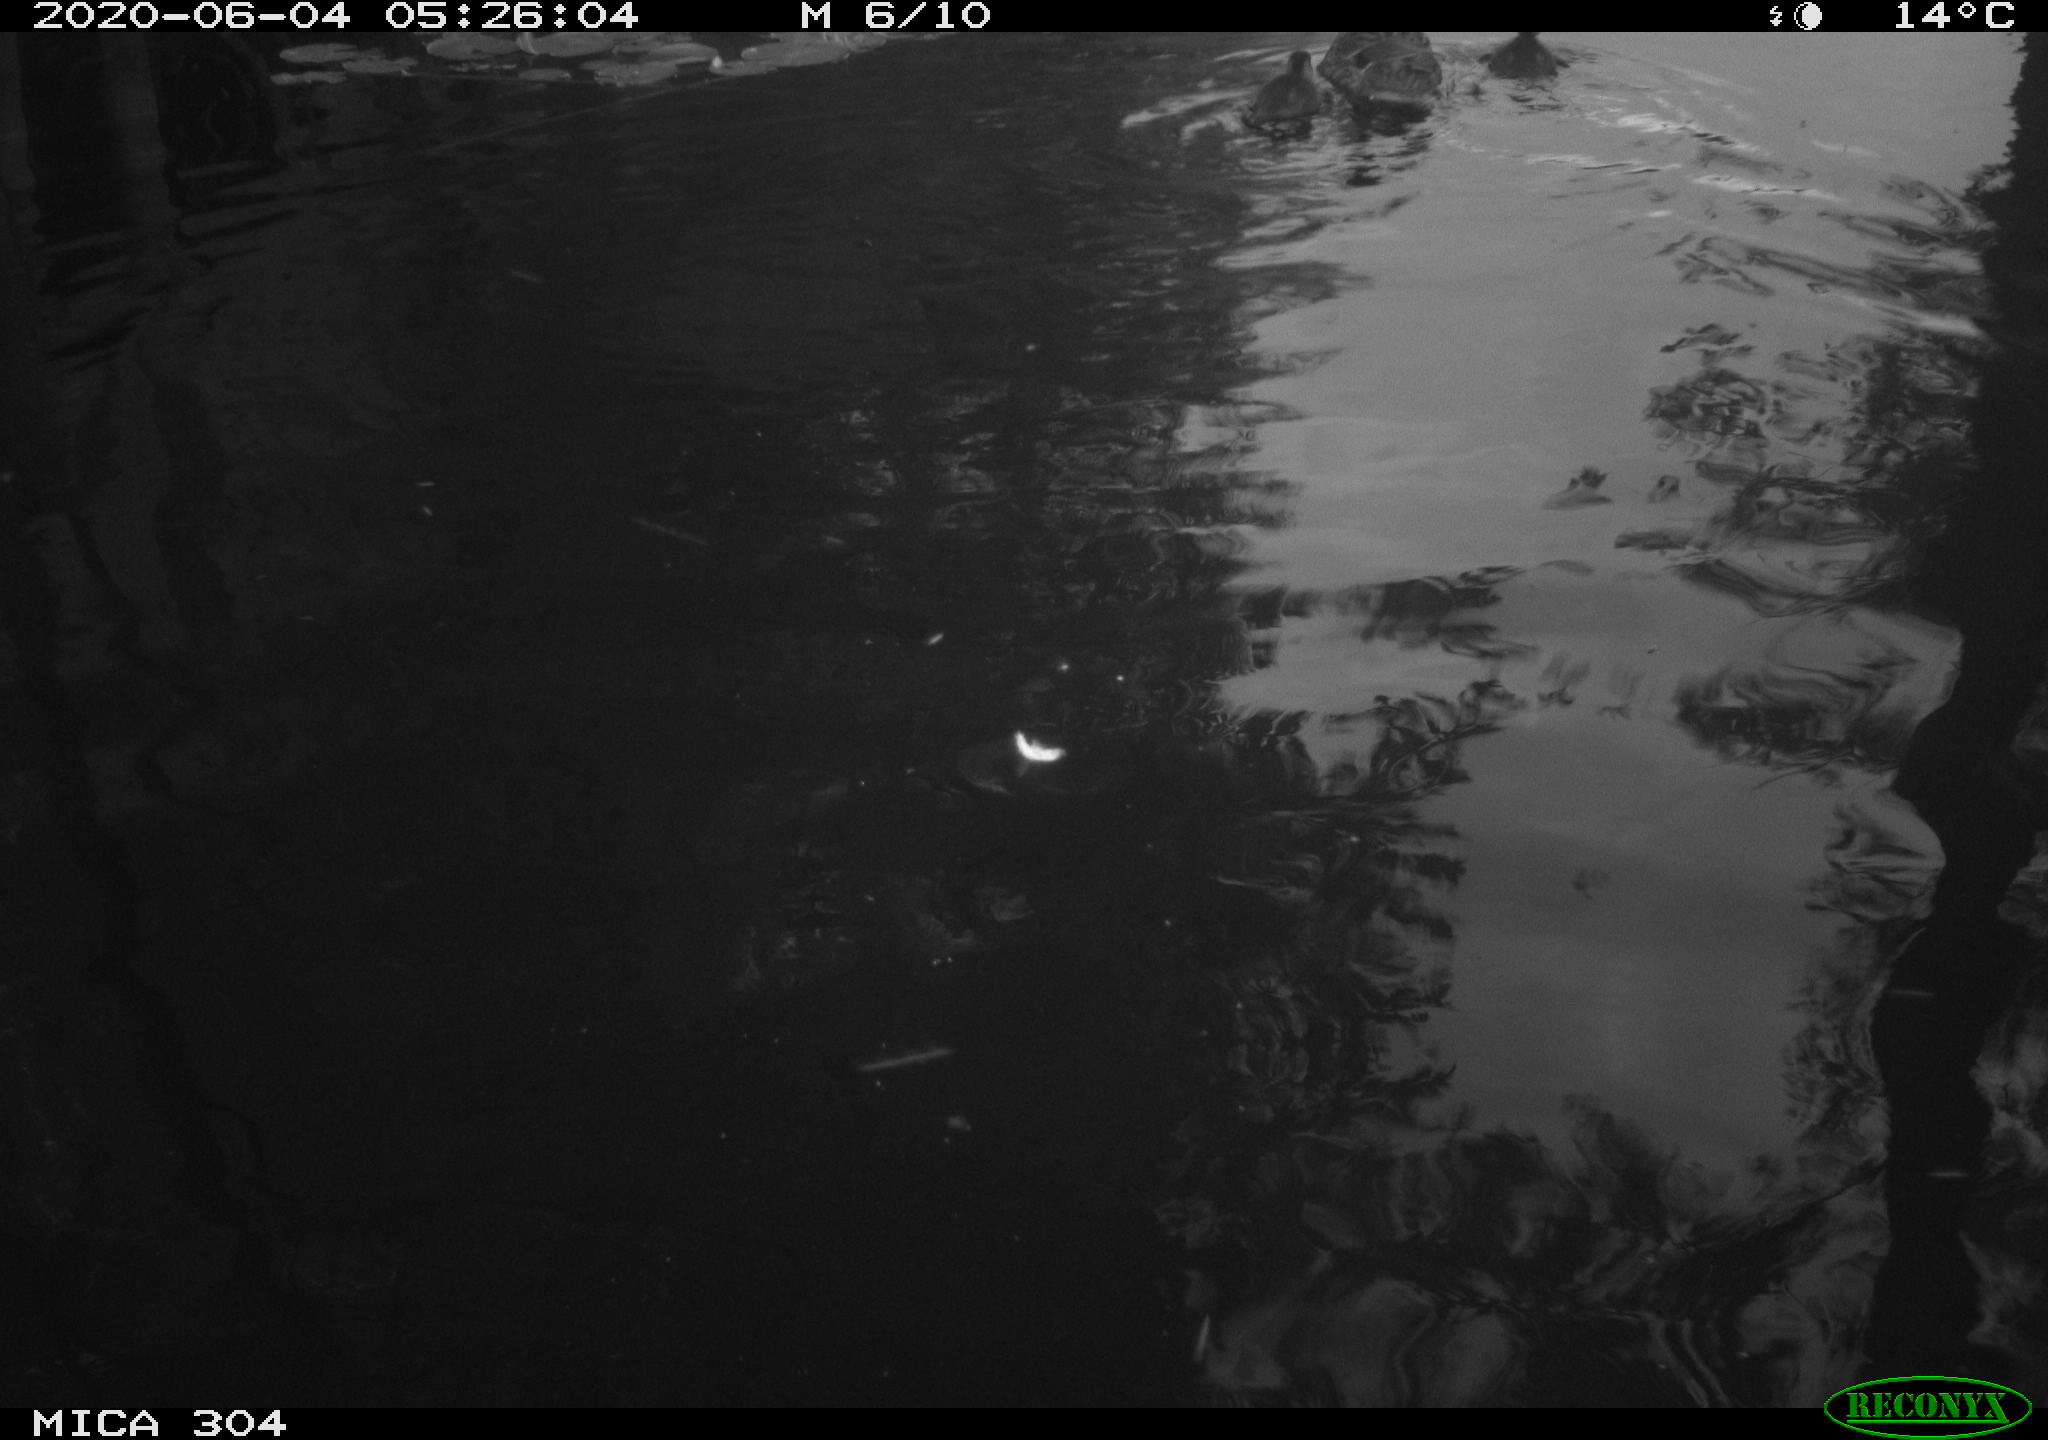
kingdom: Animalia
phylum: Chordata
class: Aves
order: Anseriformes
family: Anatidae
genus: Anas
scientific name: Anas platyrhynchos
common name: Mallard
